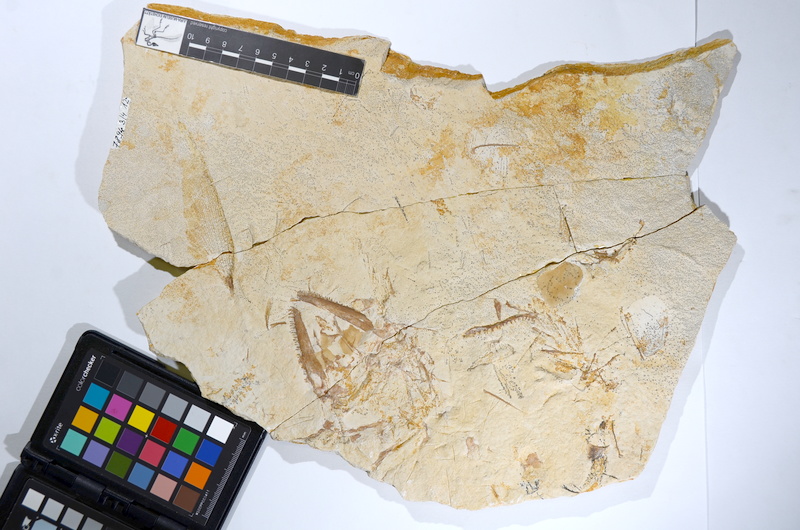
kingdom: Animalia
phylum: Chordata
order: Amiiformes
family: Caturidae
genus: Caturus
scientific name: Caturus
